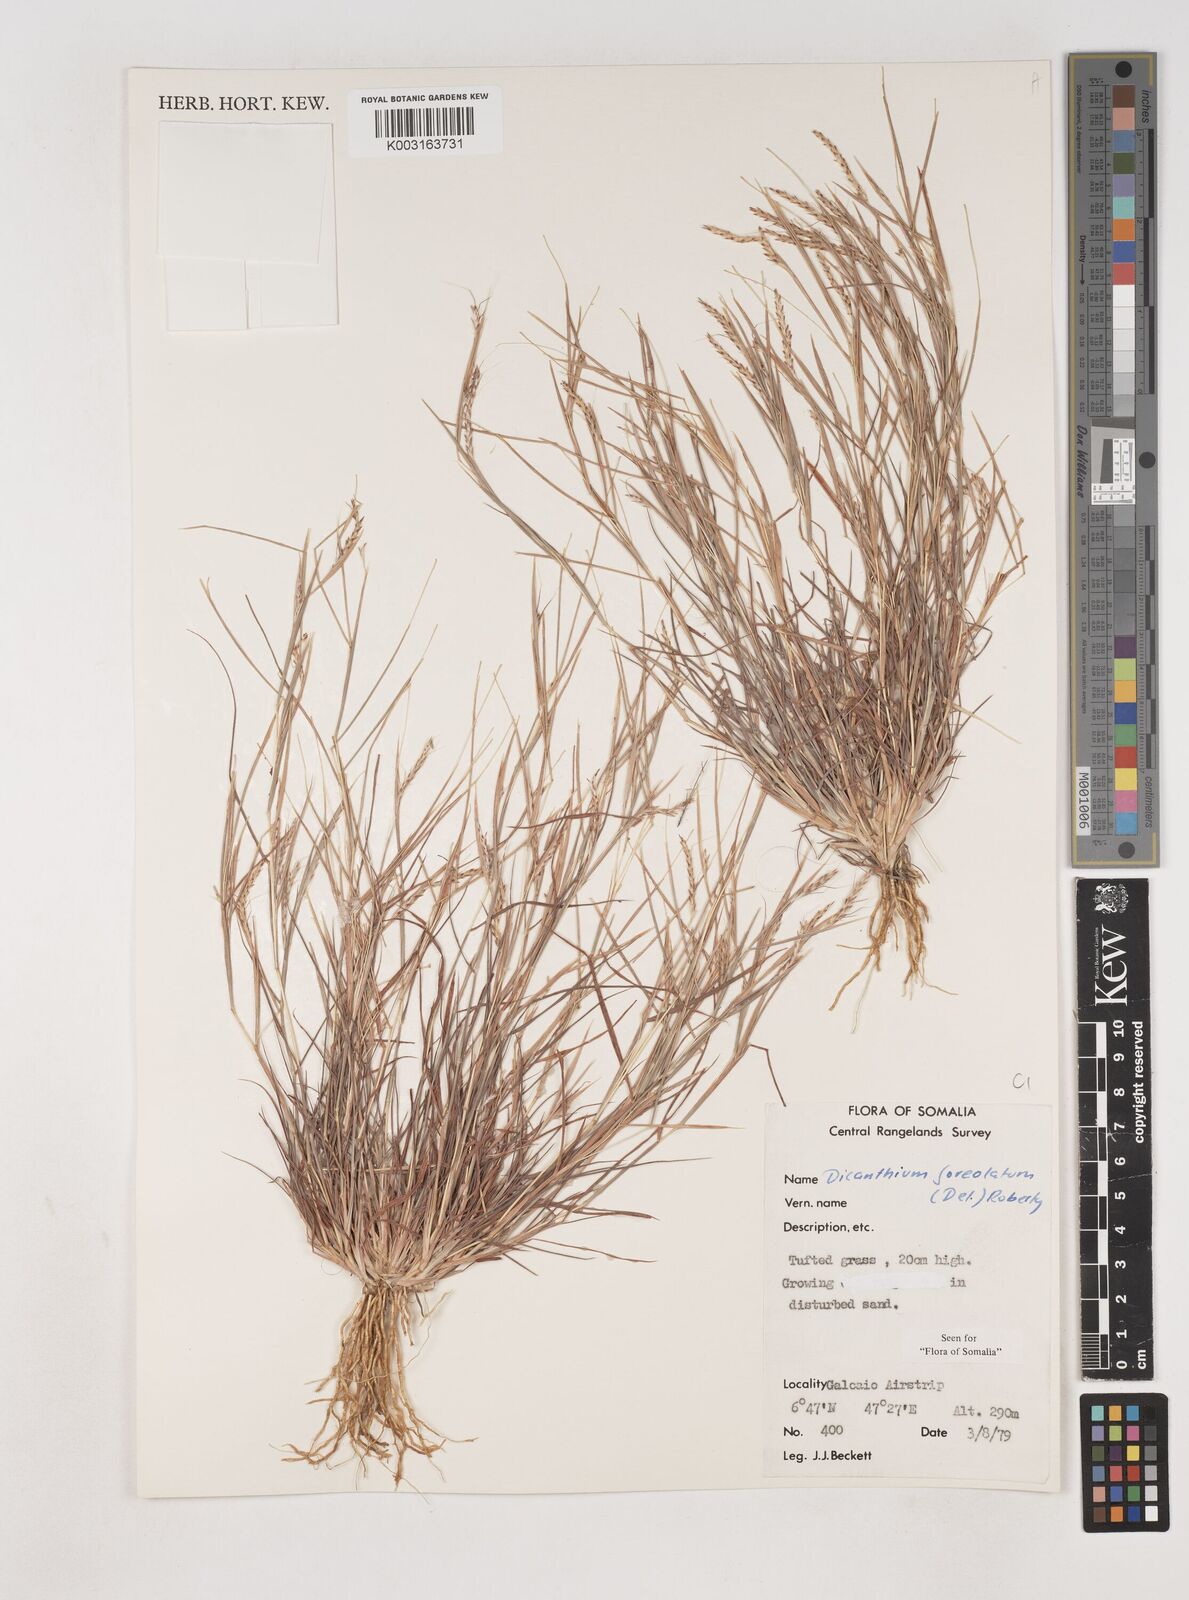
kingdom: Plantae
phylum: Tracheophyta
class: Liliopsida
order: Poales
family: Poaceae
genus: Dichanthium
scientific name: Dichanthium foveolatum
